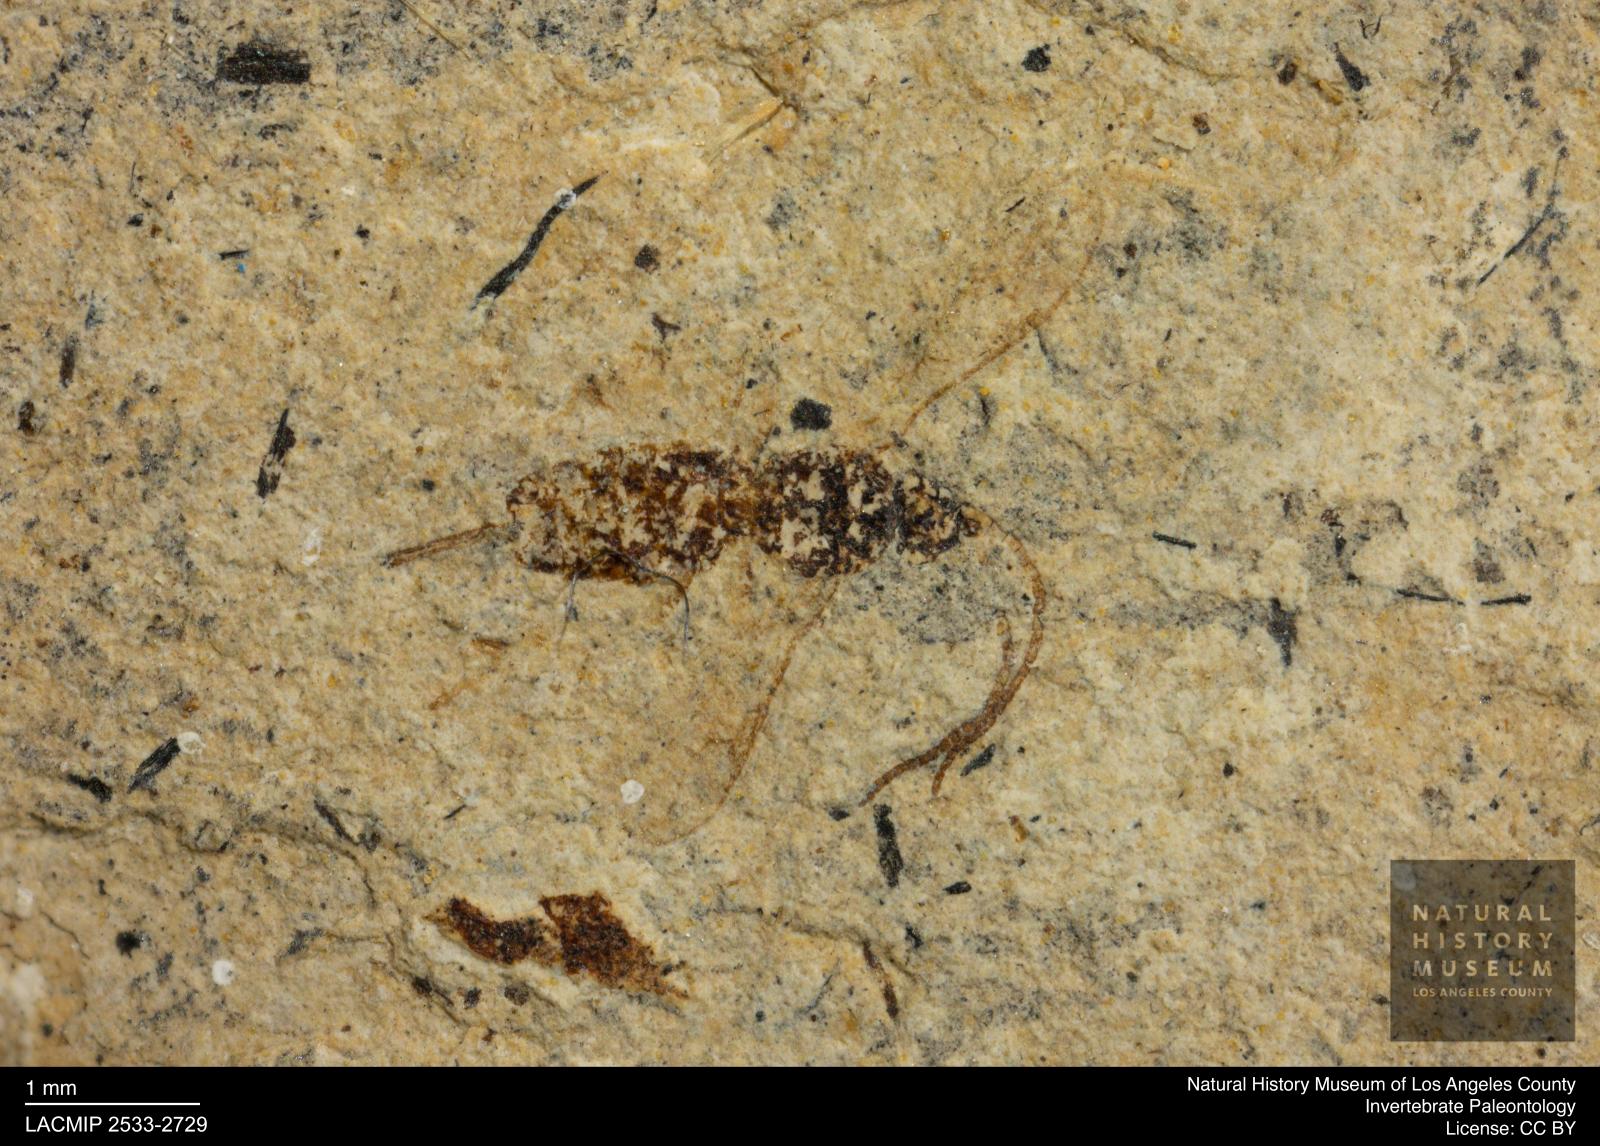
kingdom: Animalia
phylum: Arthropoda
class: Insecta
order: Hymenoptera
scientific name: Hymenoptera
